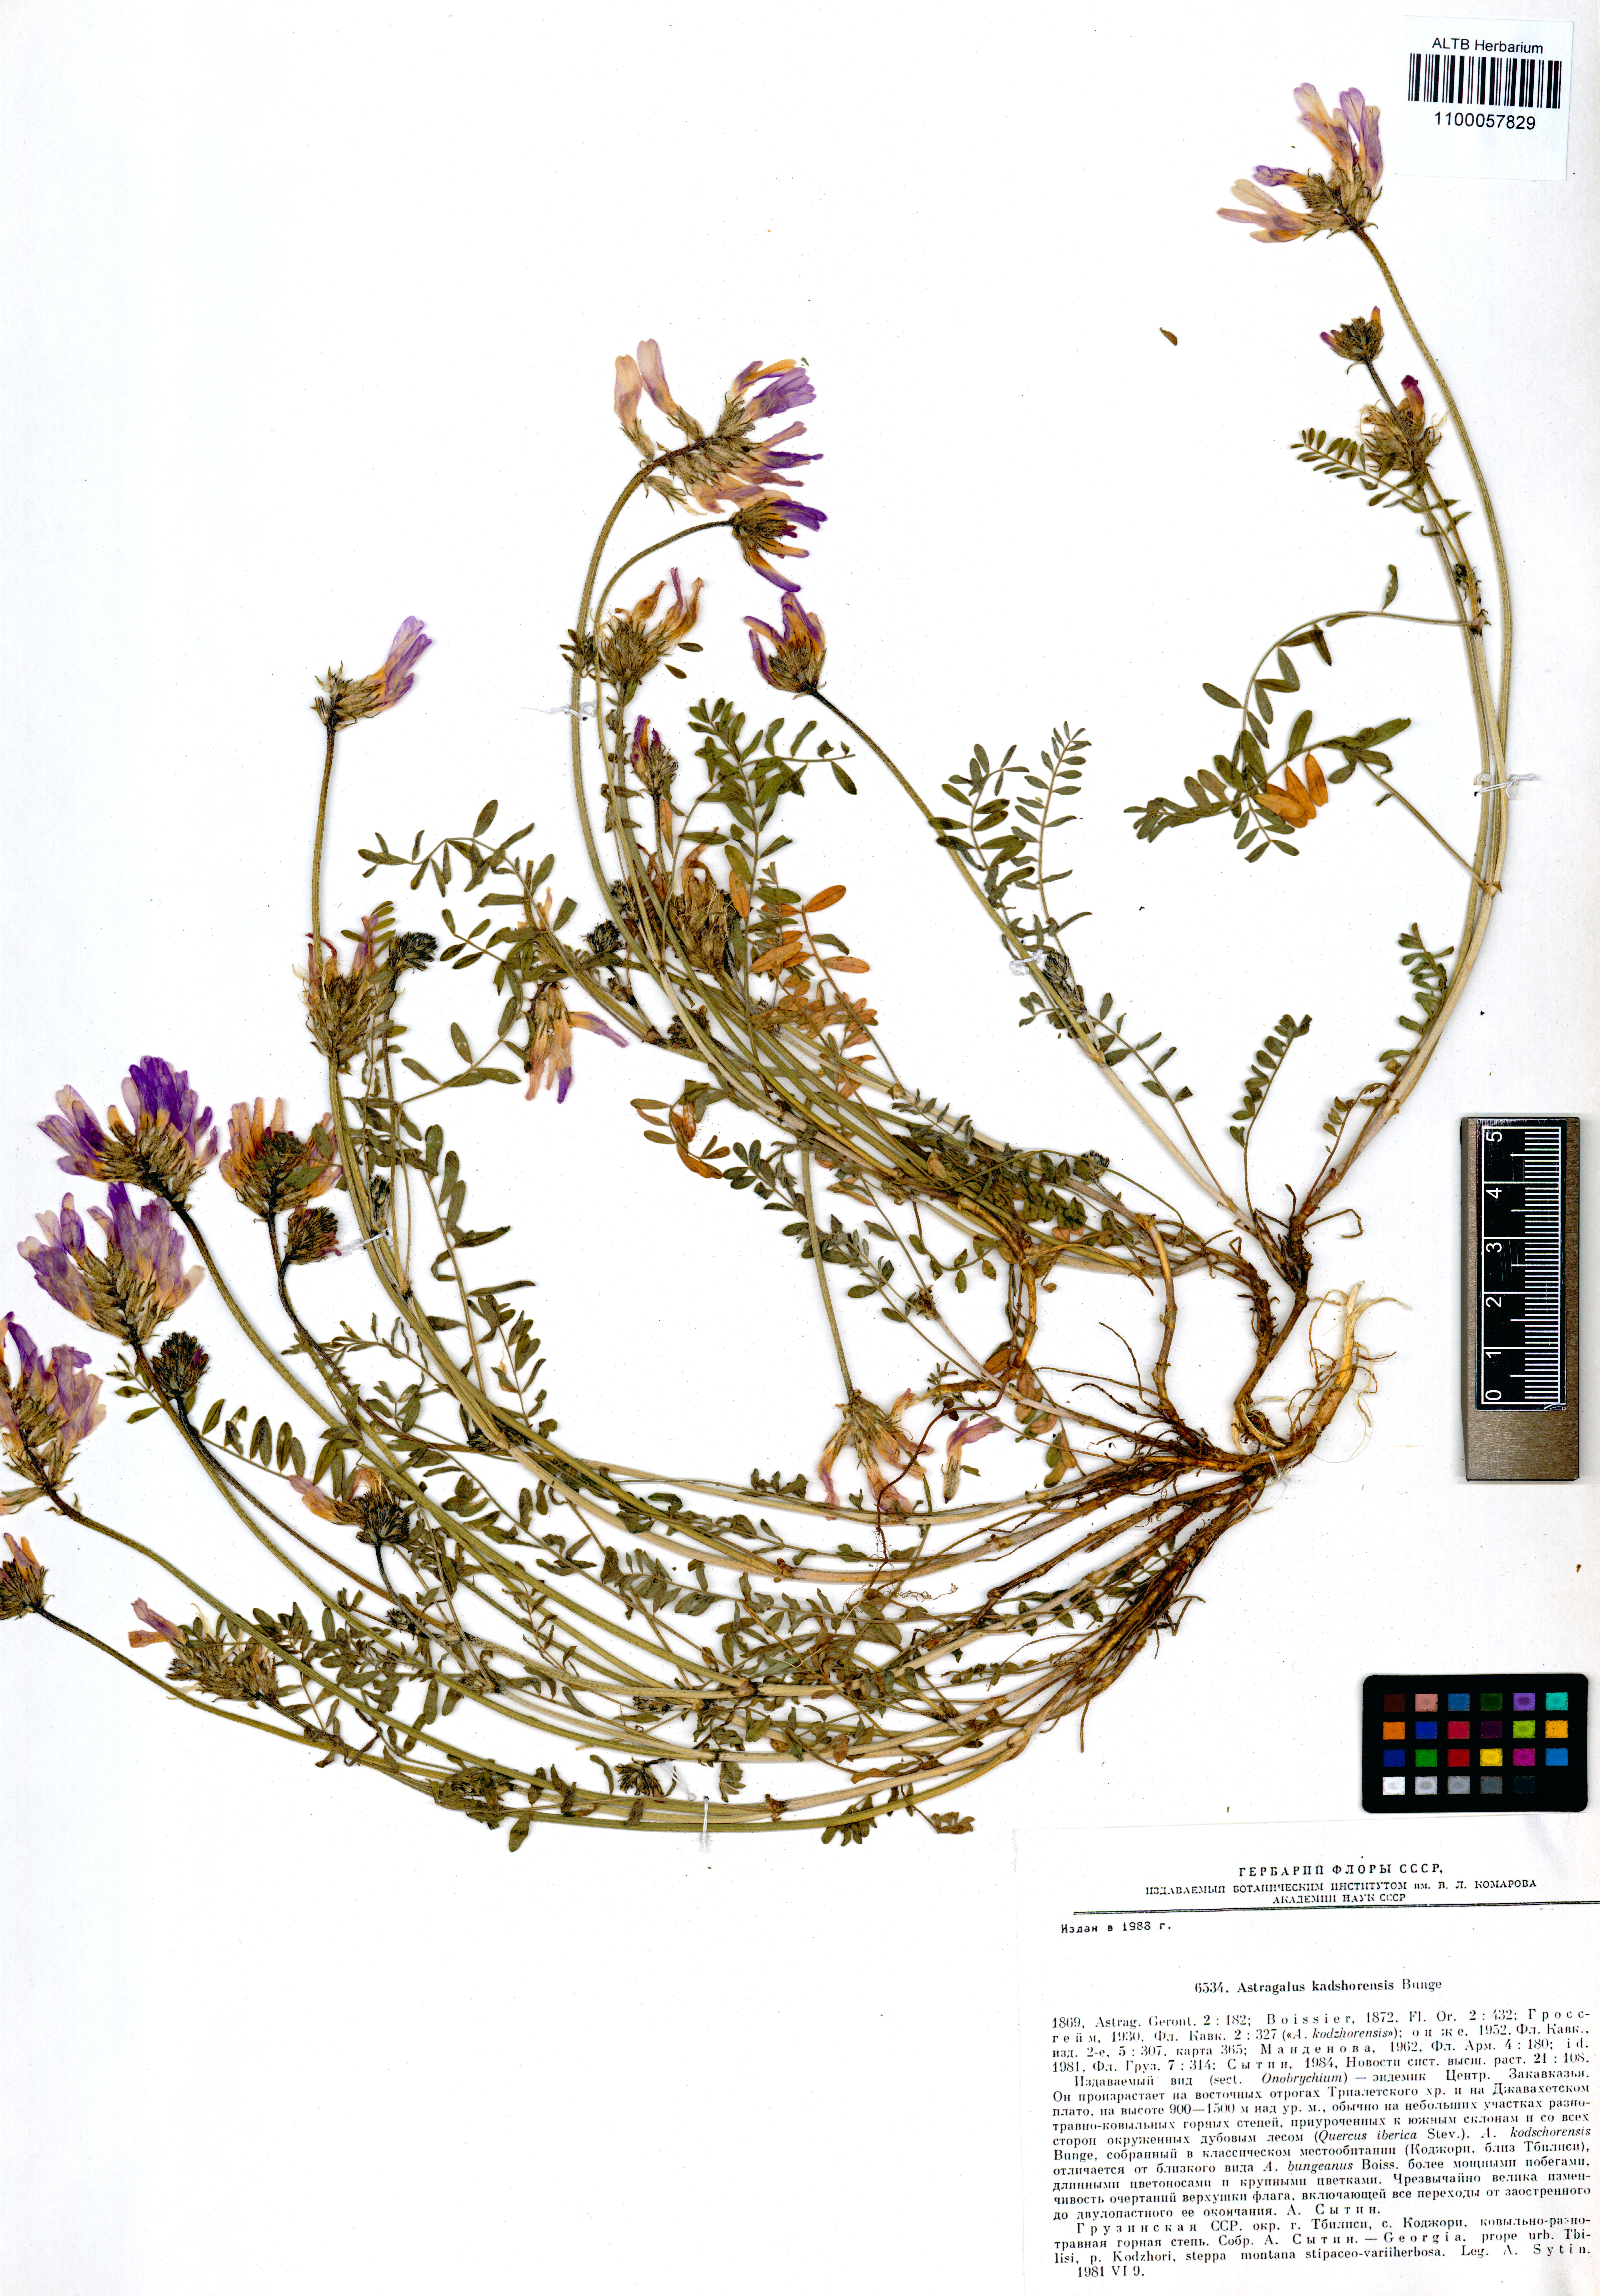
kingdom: Plantae
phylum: Tracheophyta
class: Magnoliopsida
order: Fabales
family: Fabaceae
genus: Astragalus
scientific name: Astragalus kabadianus
